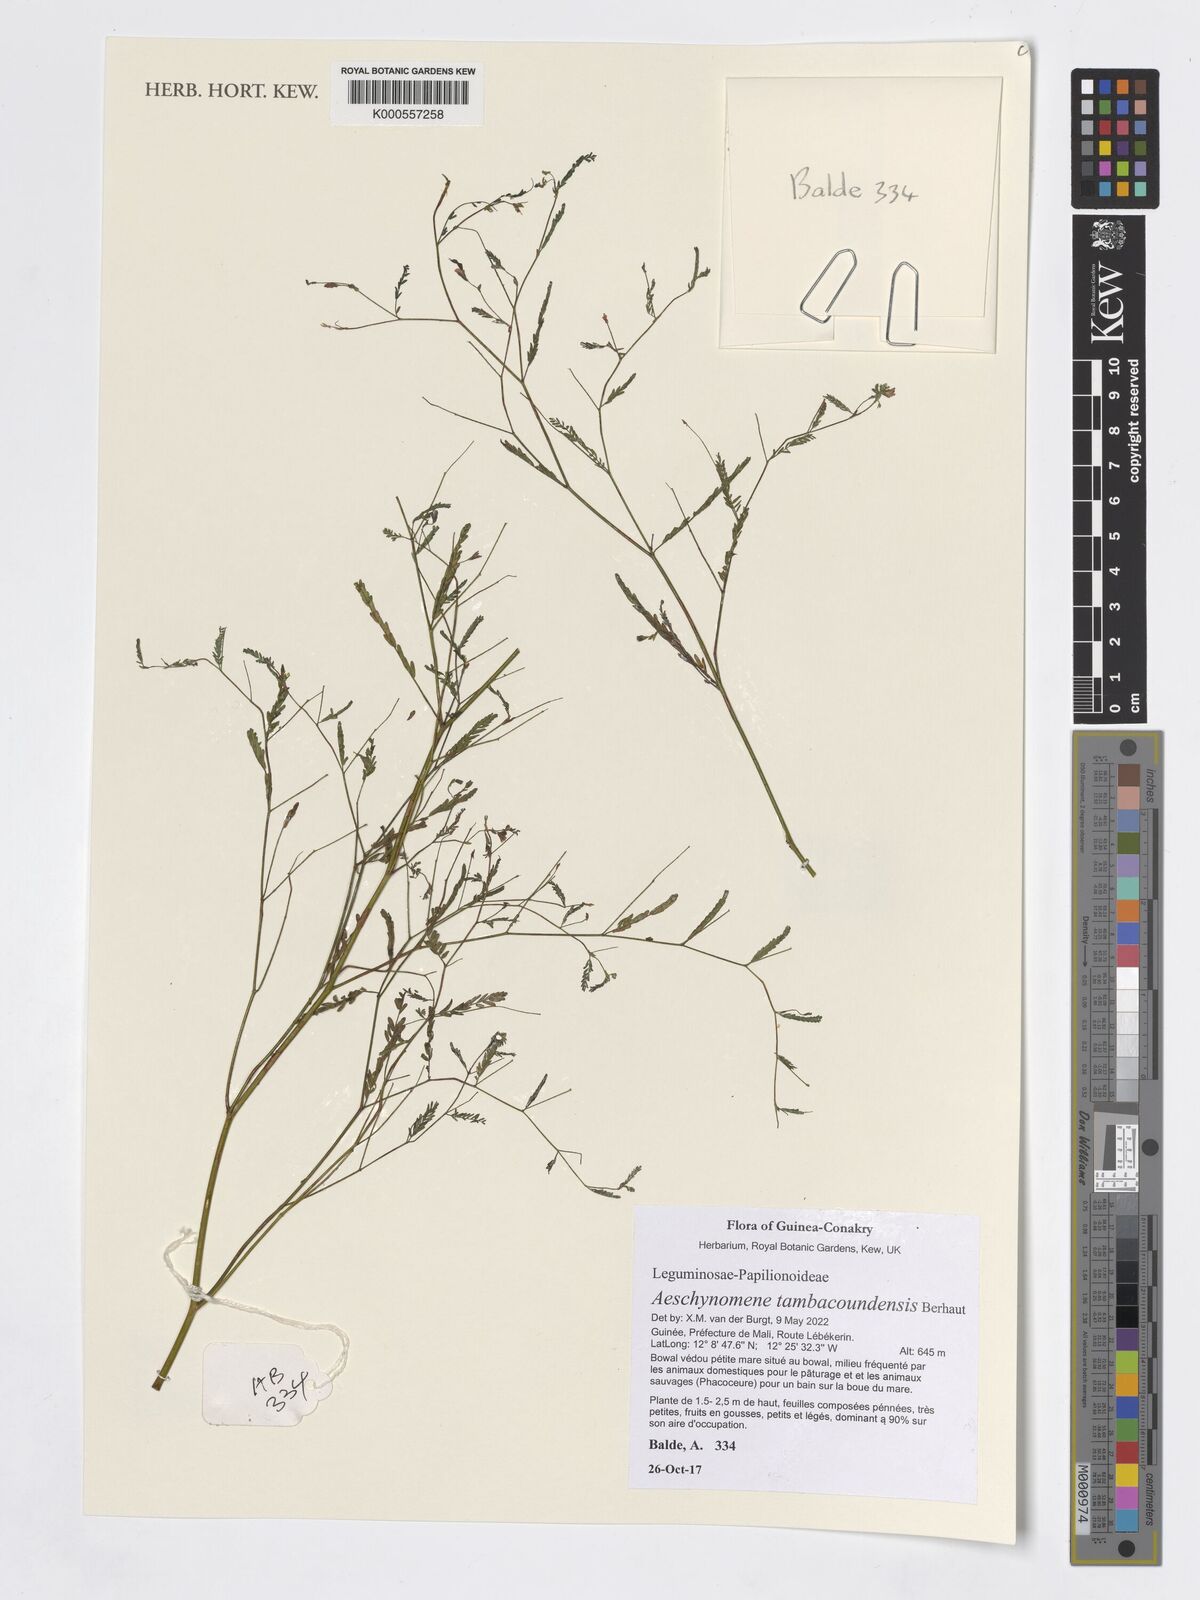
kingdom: Plantae
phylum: Tracheophyta
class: Magnoliopsida
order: Fabales
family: Fabaceae
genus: Aeschynomene
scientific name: Aeschynomene tambacoundensis
